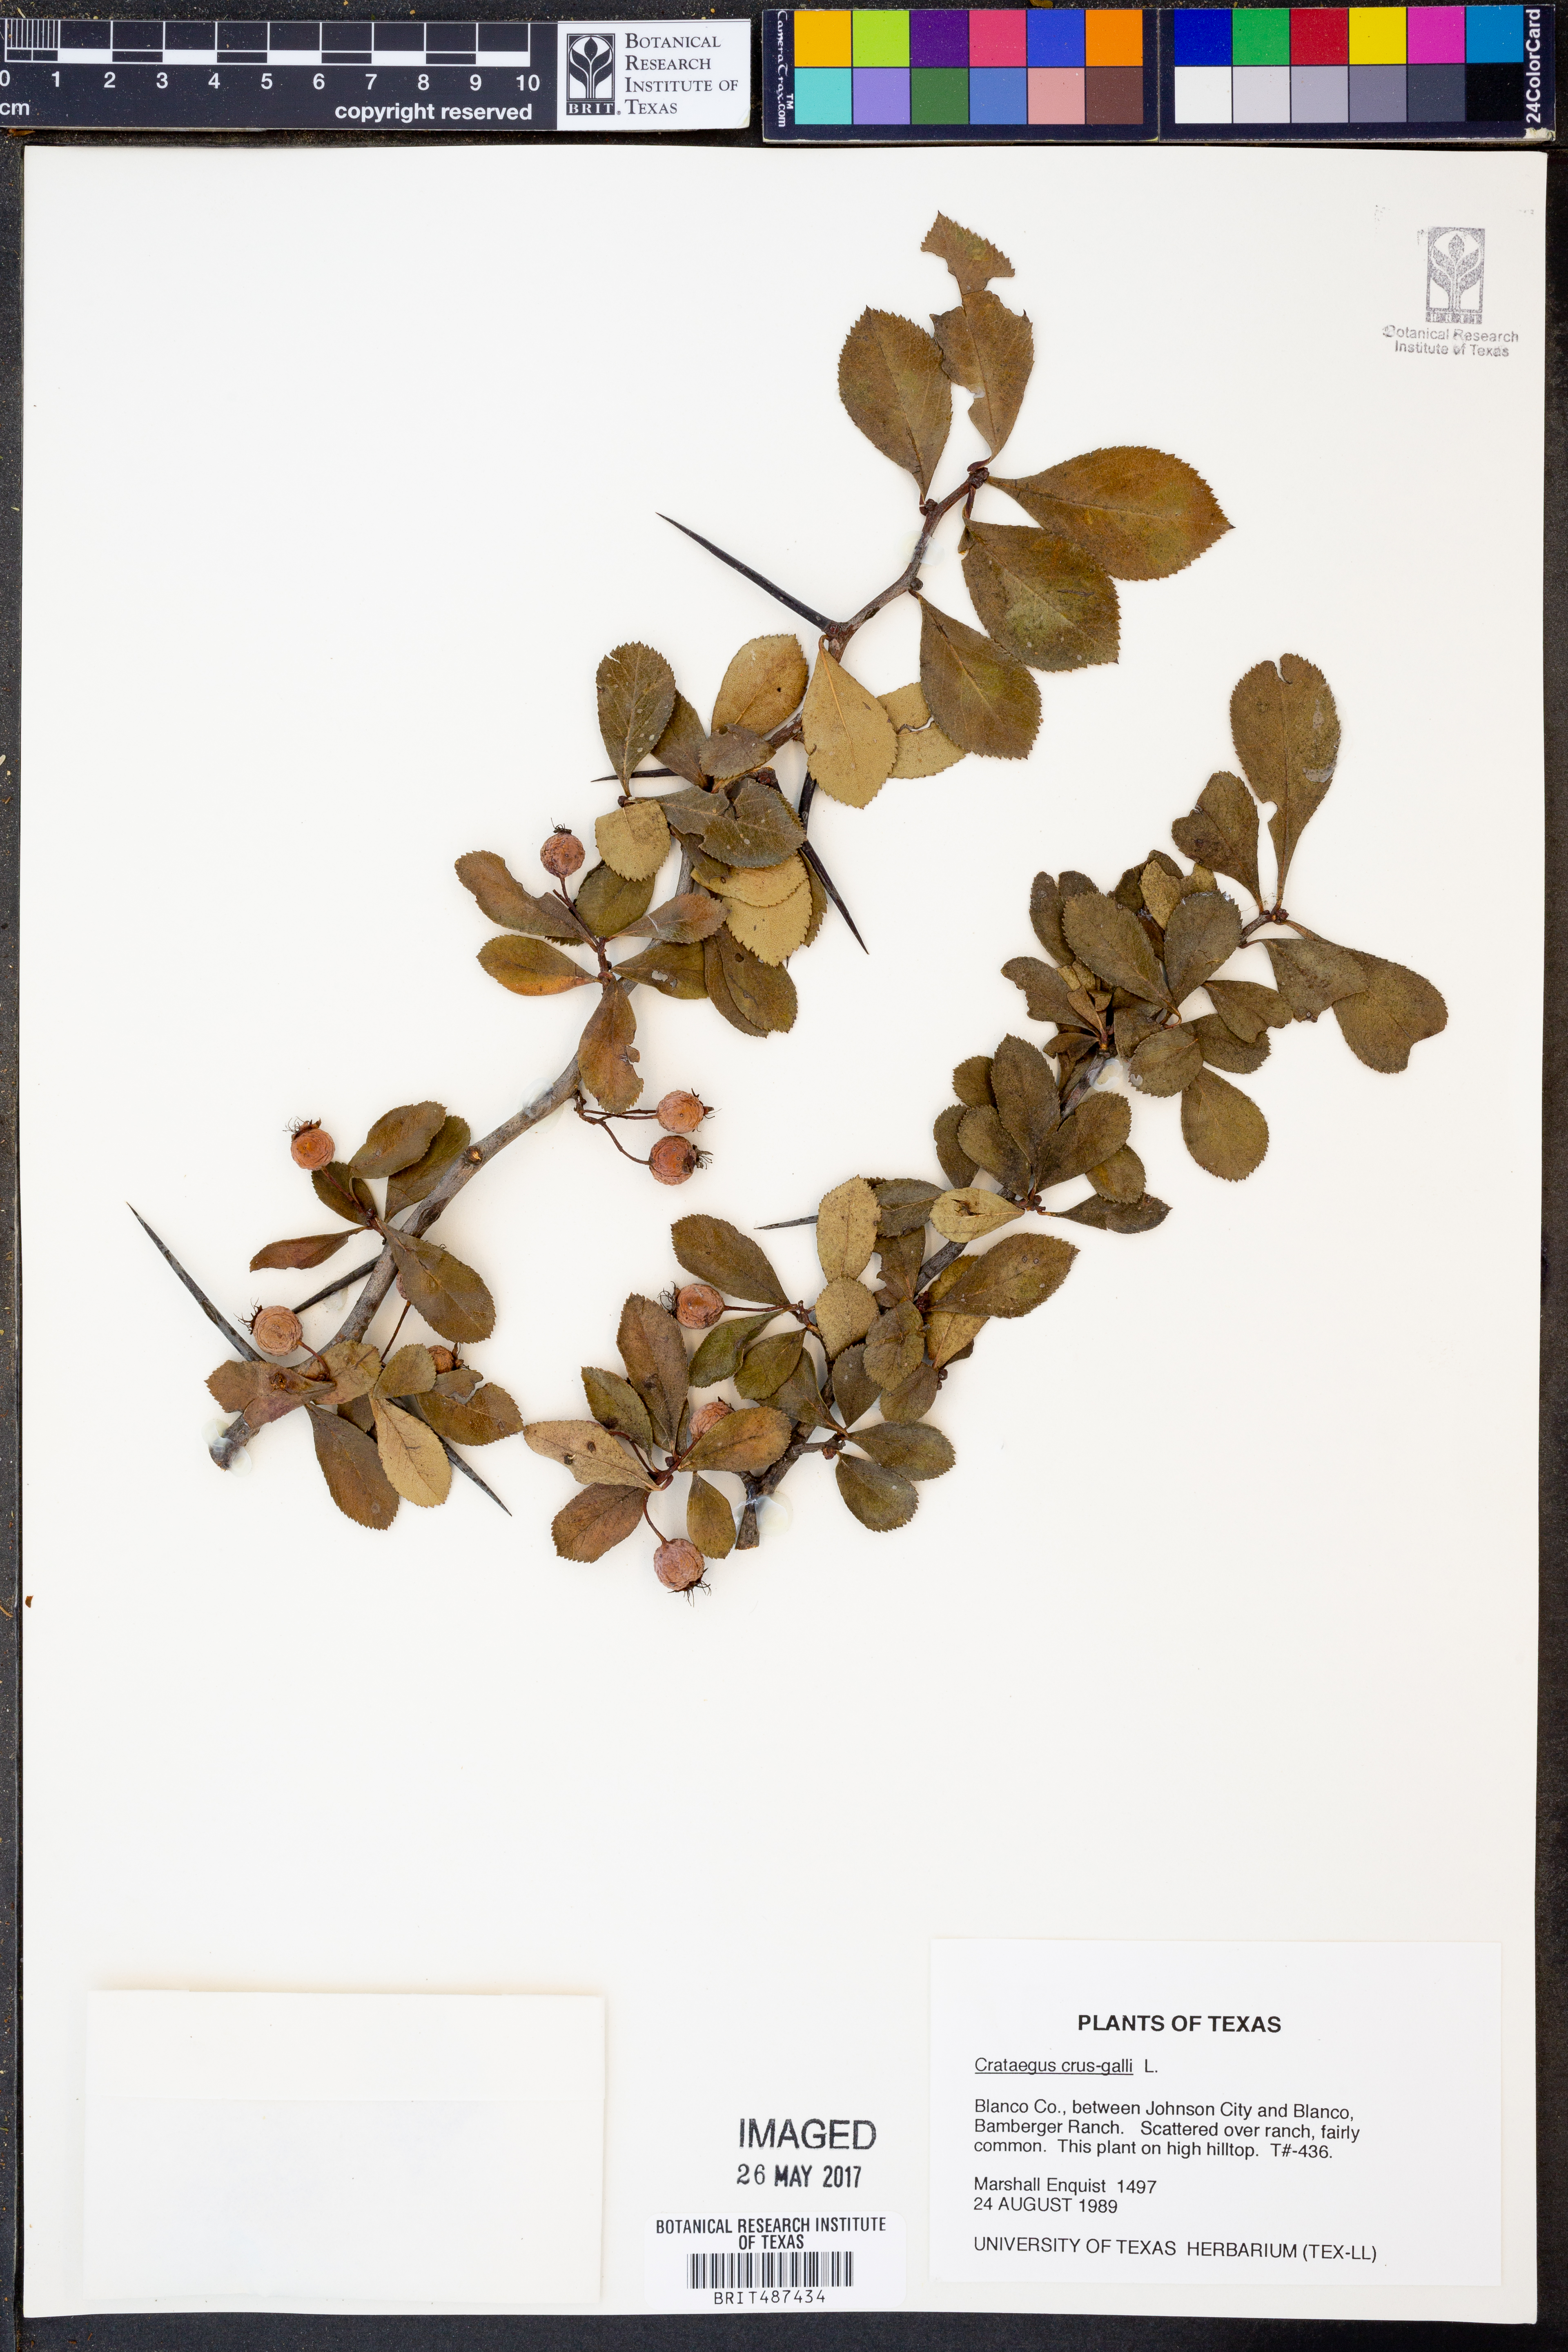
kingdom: Plantae
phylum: Tracheophyta
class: Magnoliopsida
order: Rosales
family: Rosaceae
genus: Crataegus
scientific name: Crataegus crus-galli
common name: Cockspurthorn
